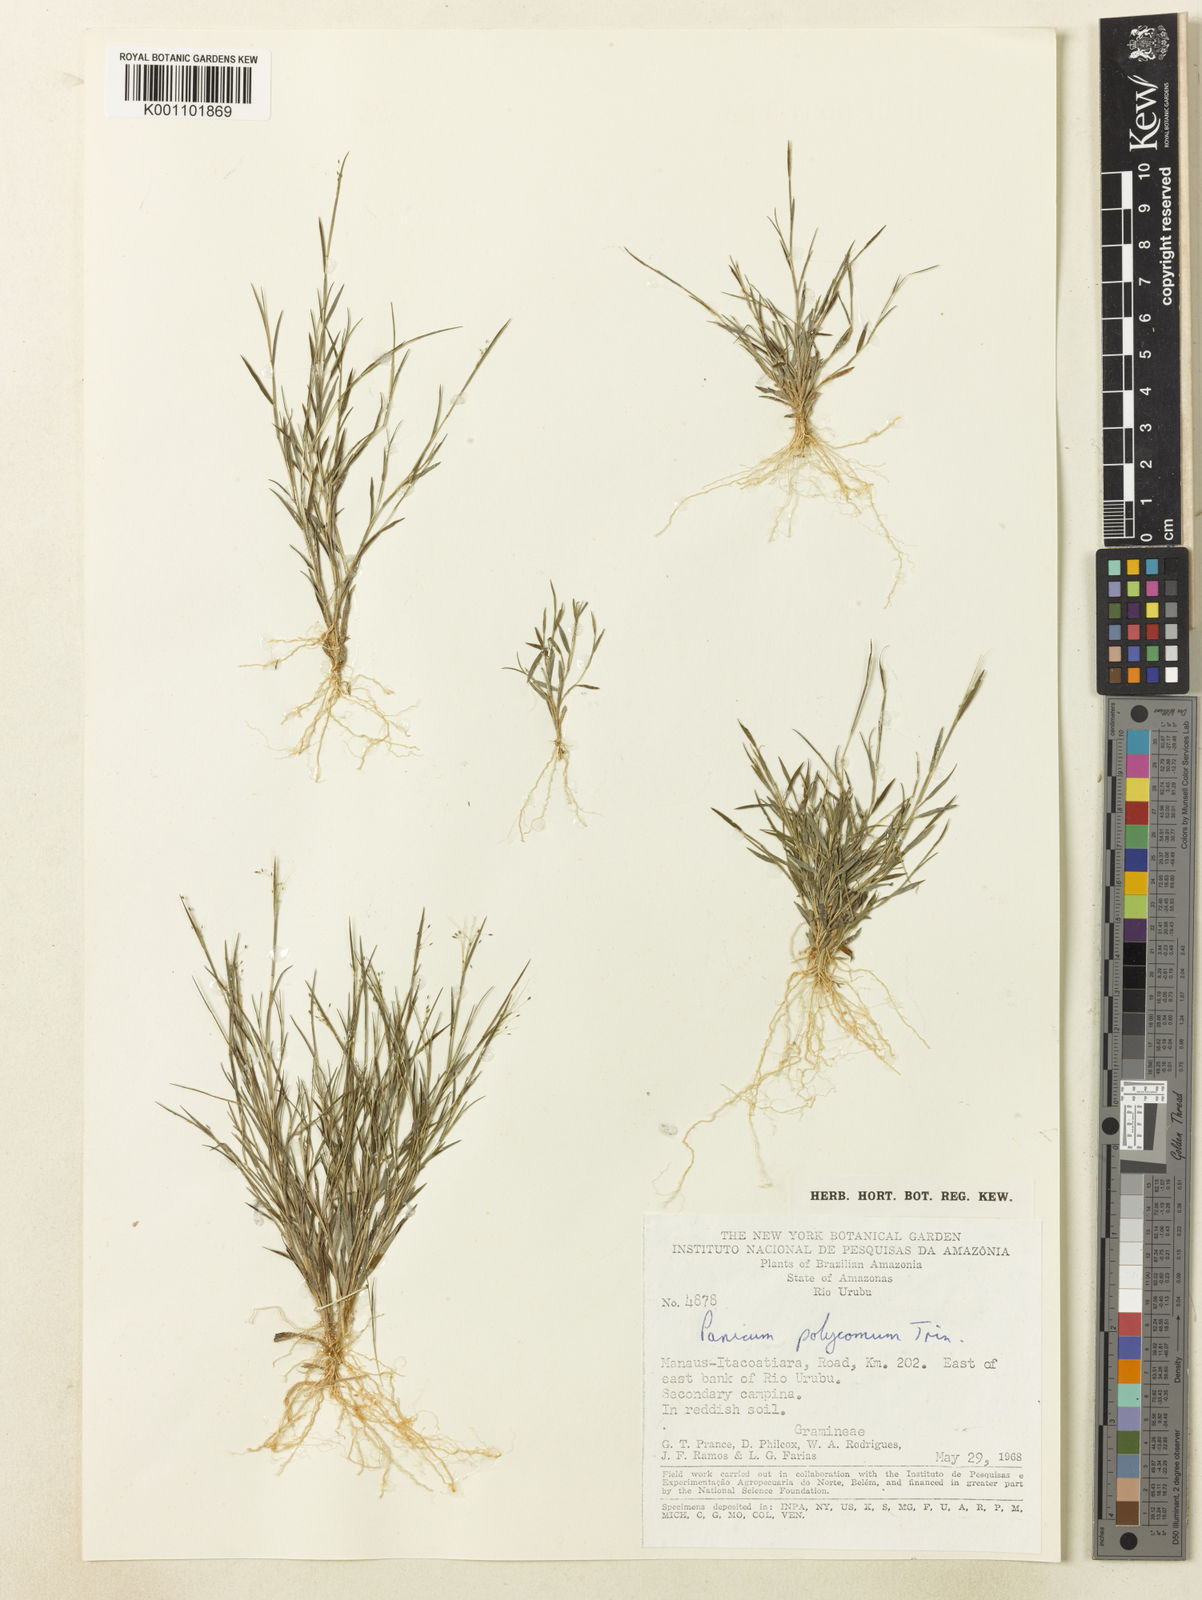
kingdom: Plantae
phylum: Tracheophyta
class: Liliopsida
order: Poales
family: Poaceae
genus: Trichanthecium
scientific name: Trichanthecium polycomum
